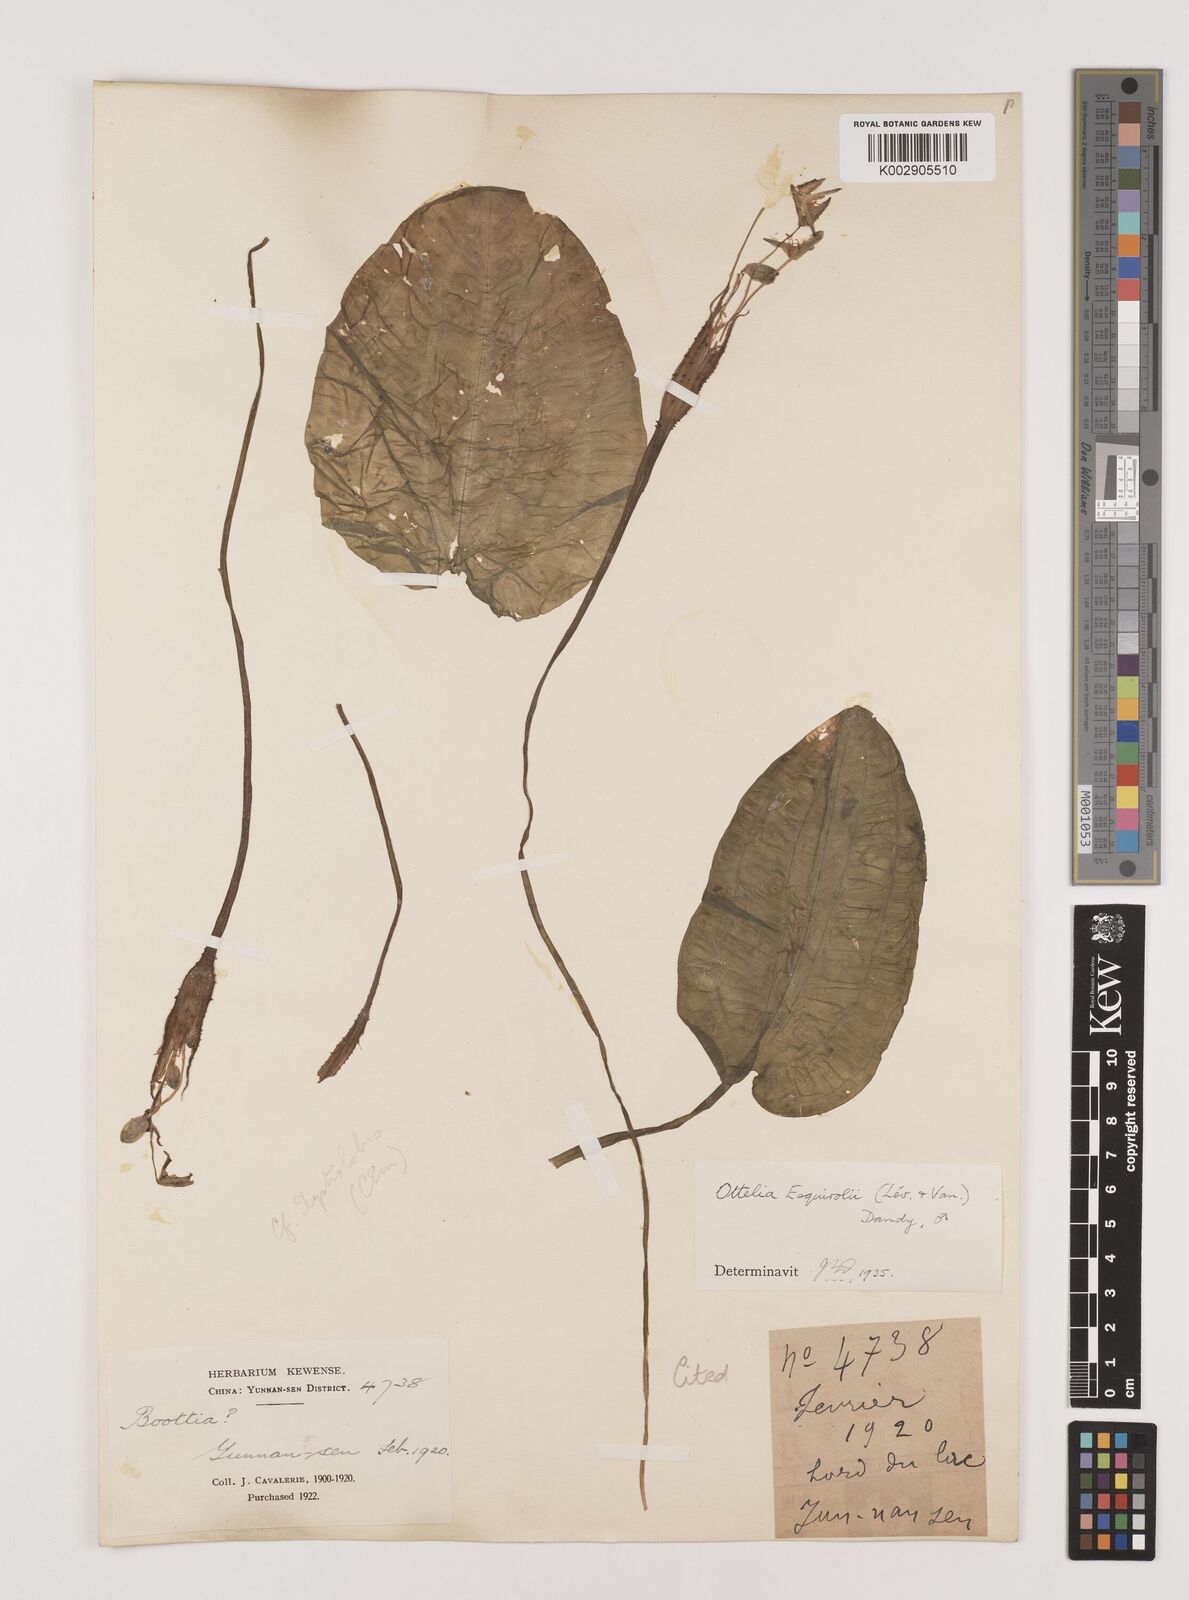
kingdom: Plantae
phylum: Tracheophyta
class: Liliopsida
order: Alismatales
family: Hydrocharitaceae
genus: Ottelia
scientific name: Ottelia acuminata
